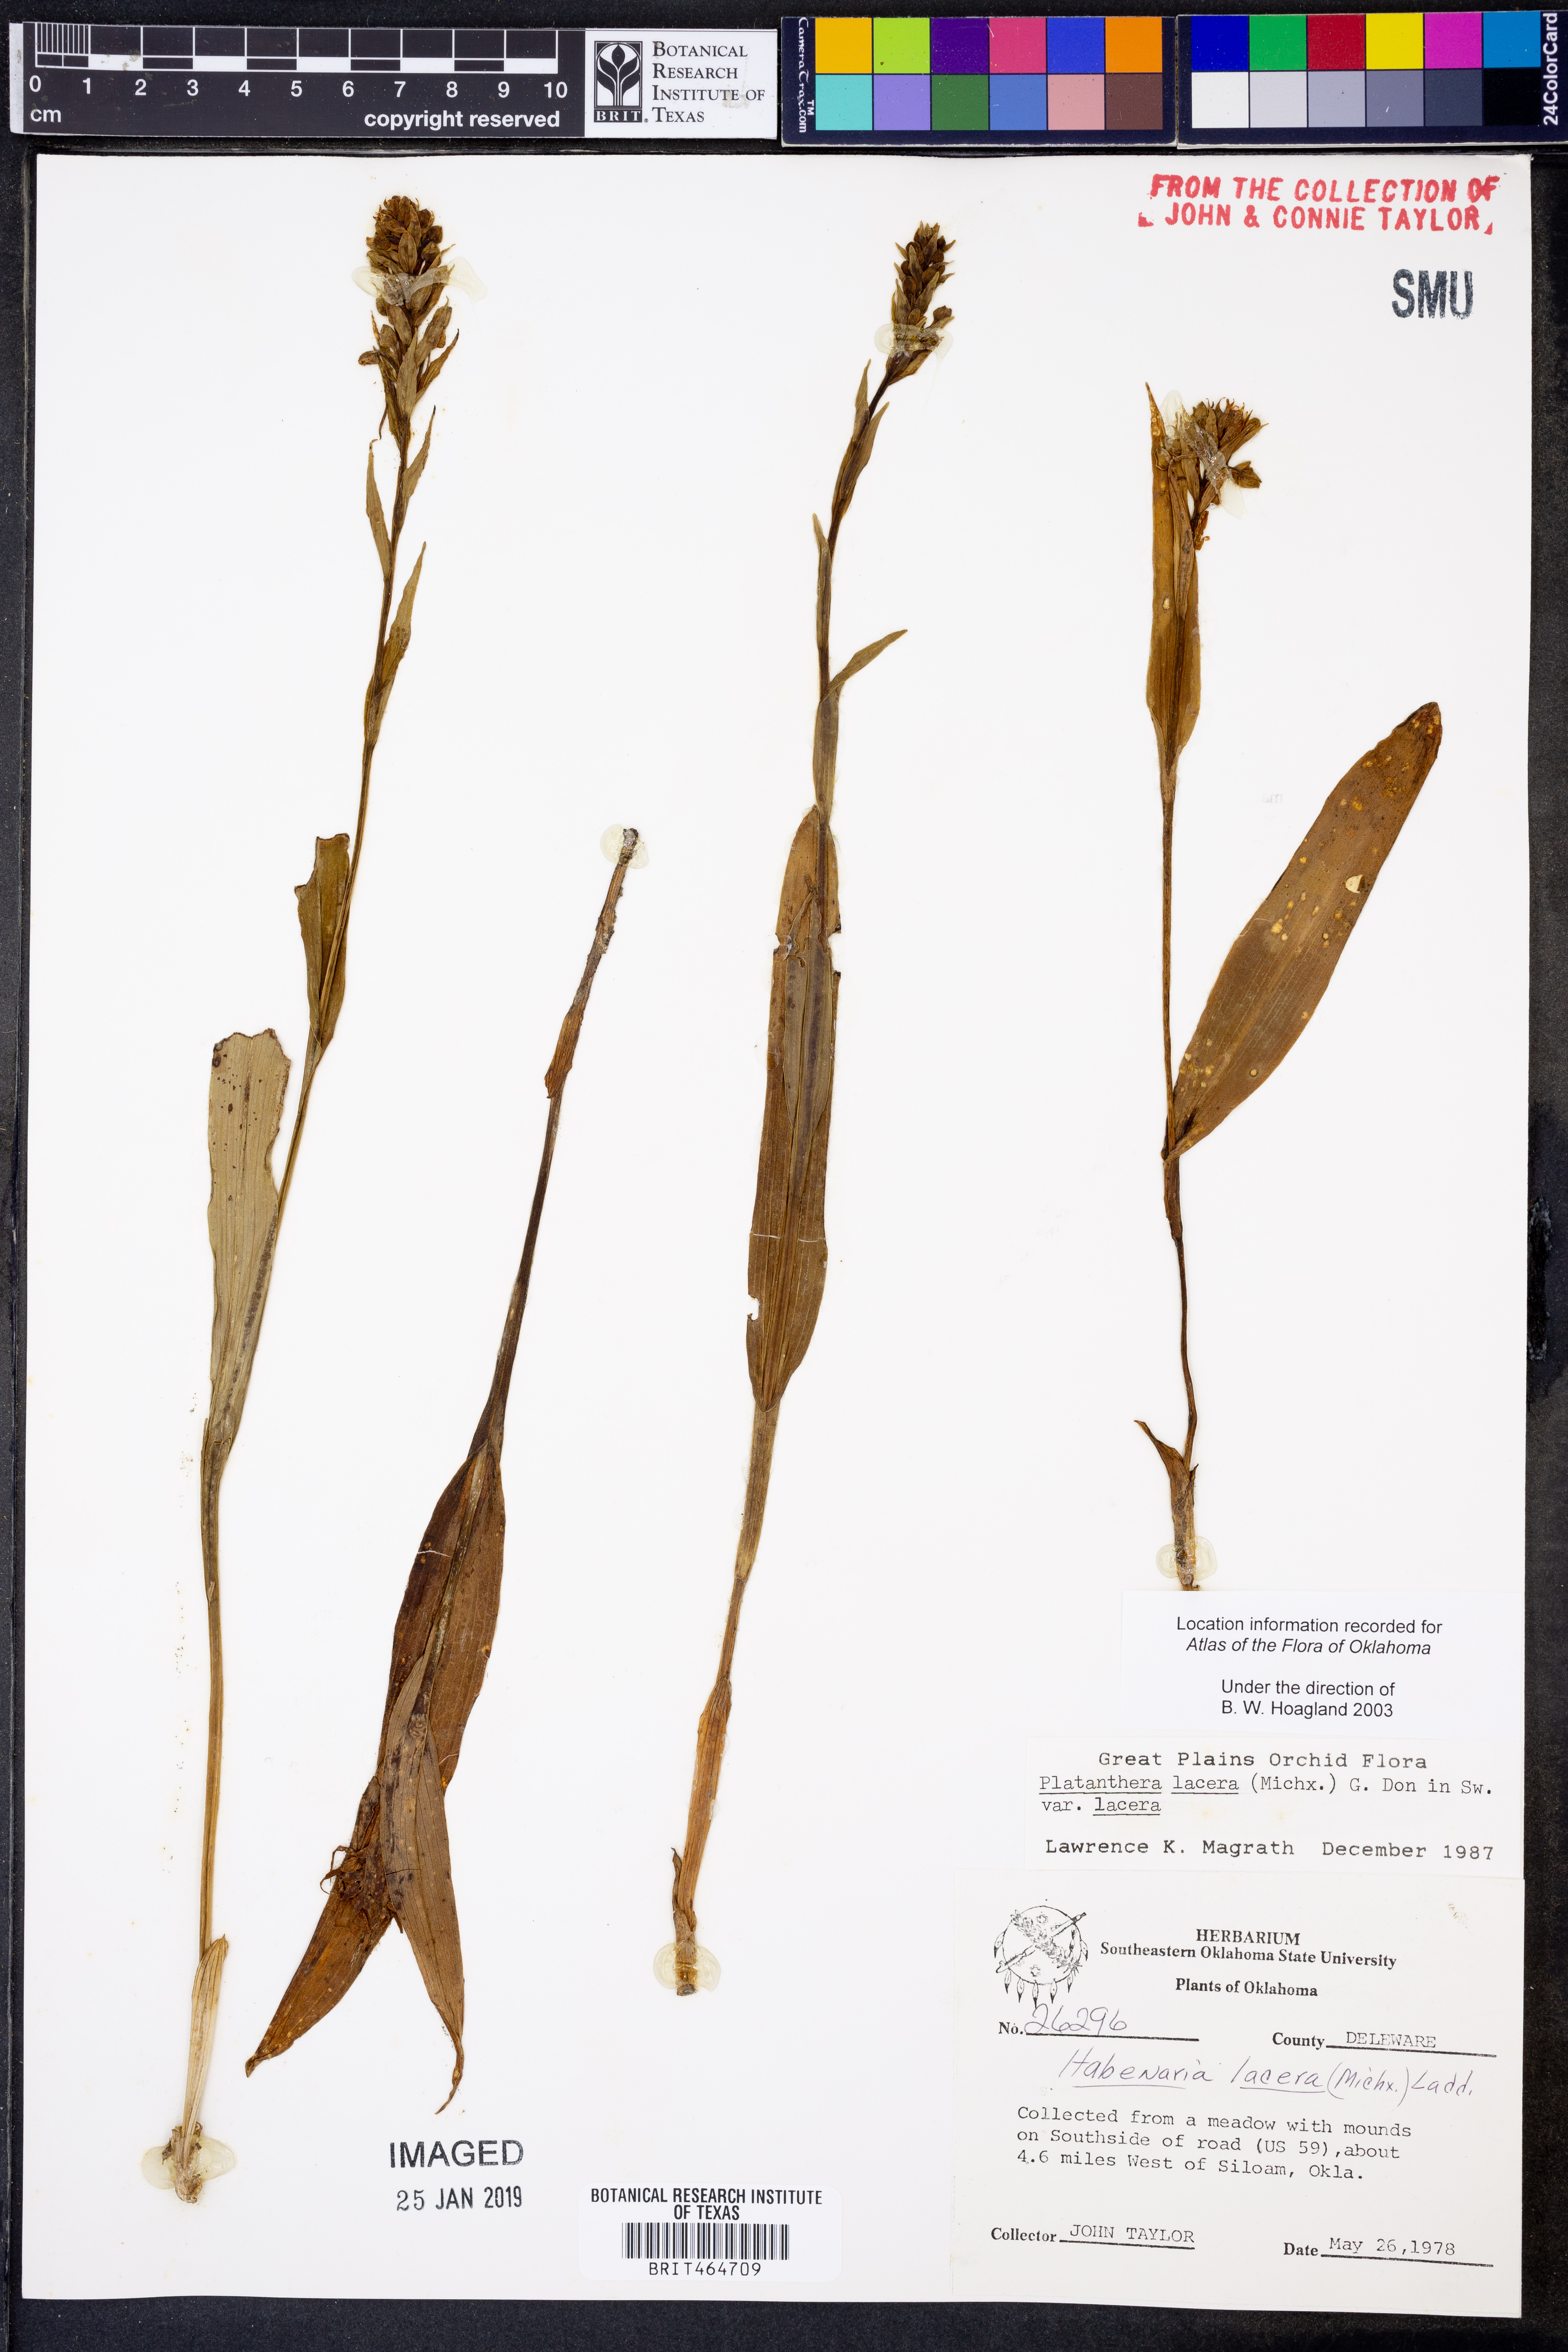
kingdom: Plantae
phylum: Tracheophyta
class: Liliopsida
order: Asparagales
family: Orchidaceae
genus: Platanthera
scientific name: Platanthera lacera
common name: Green fringed orchid
